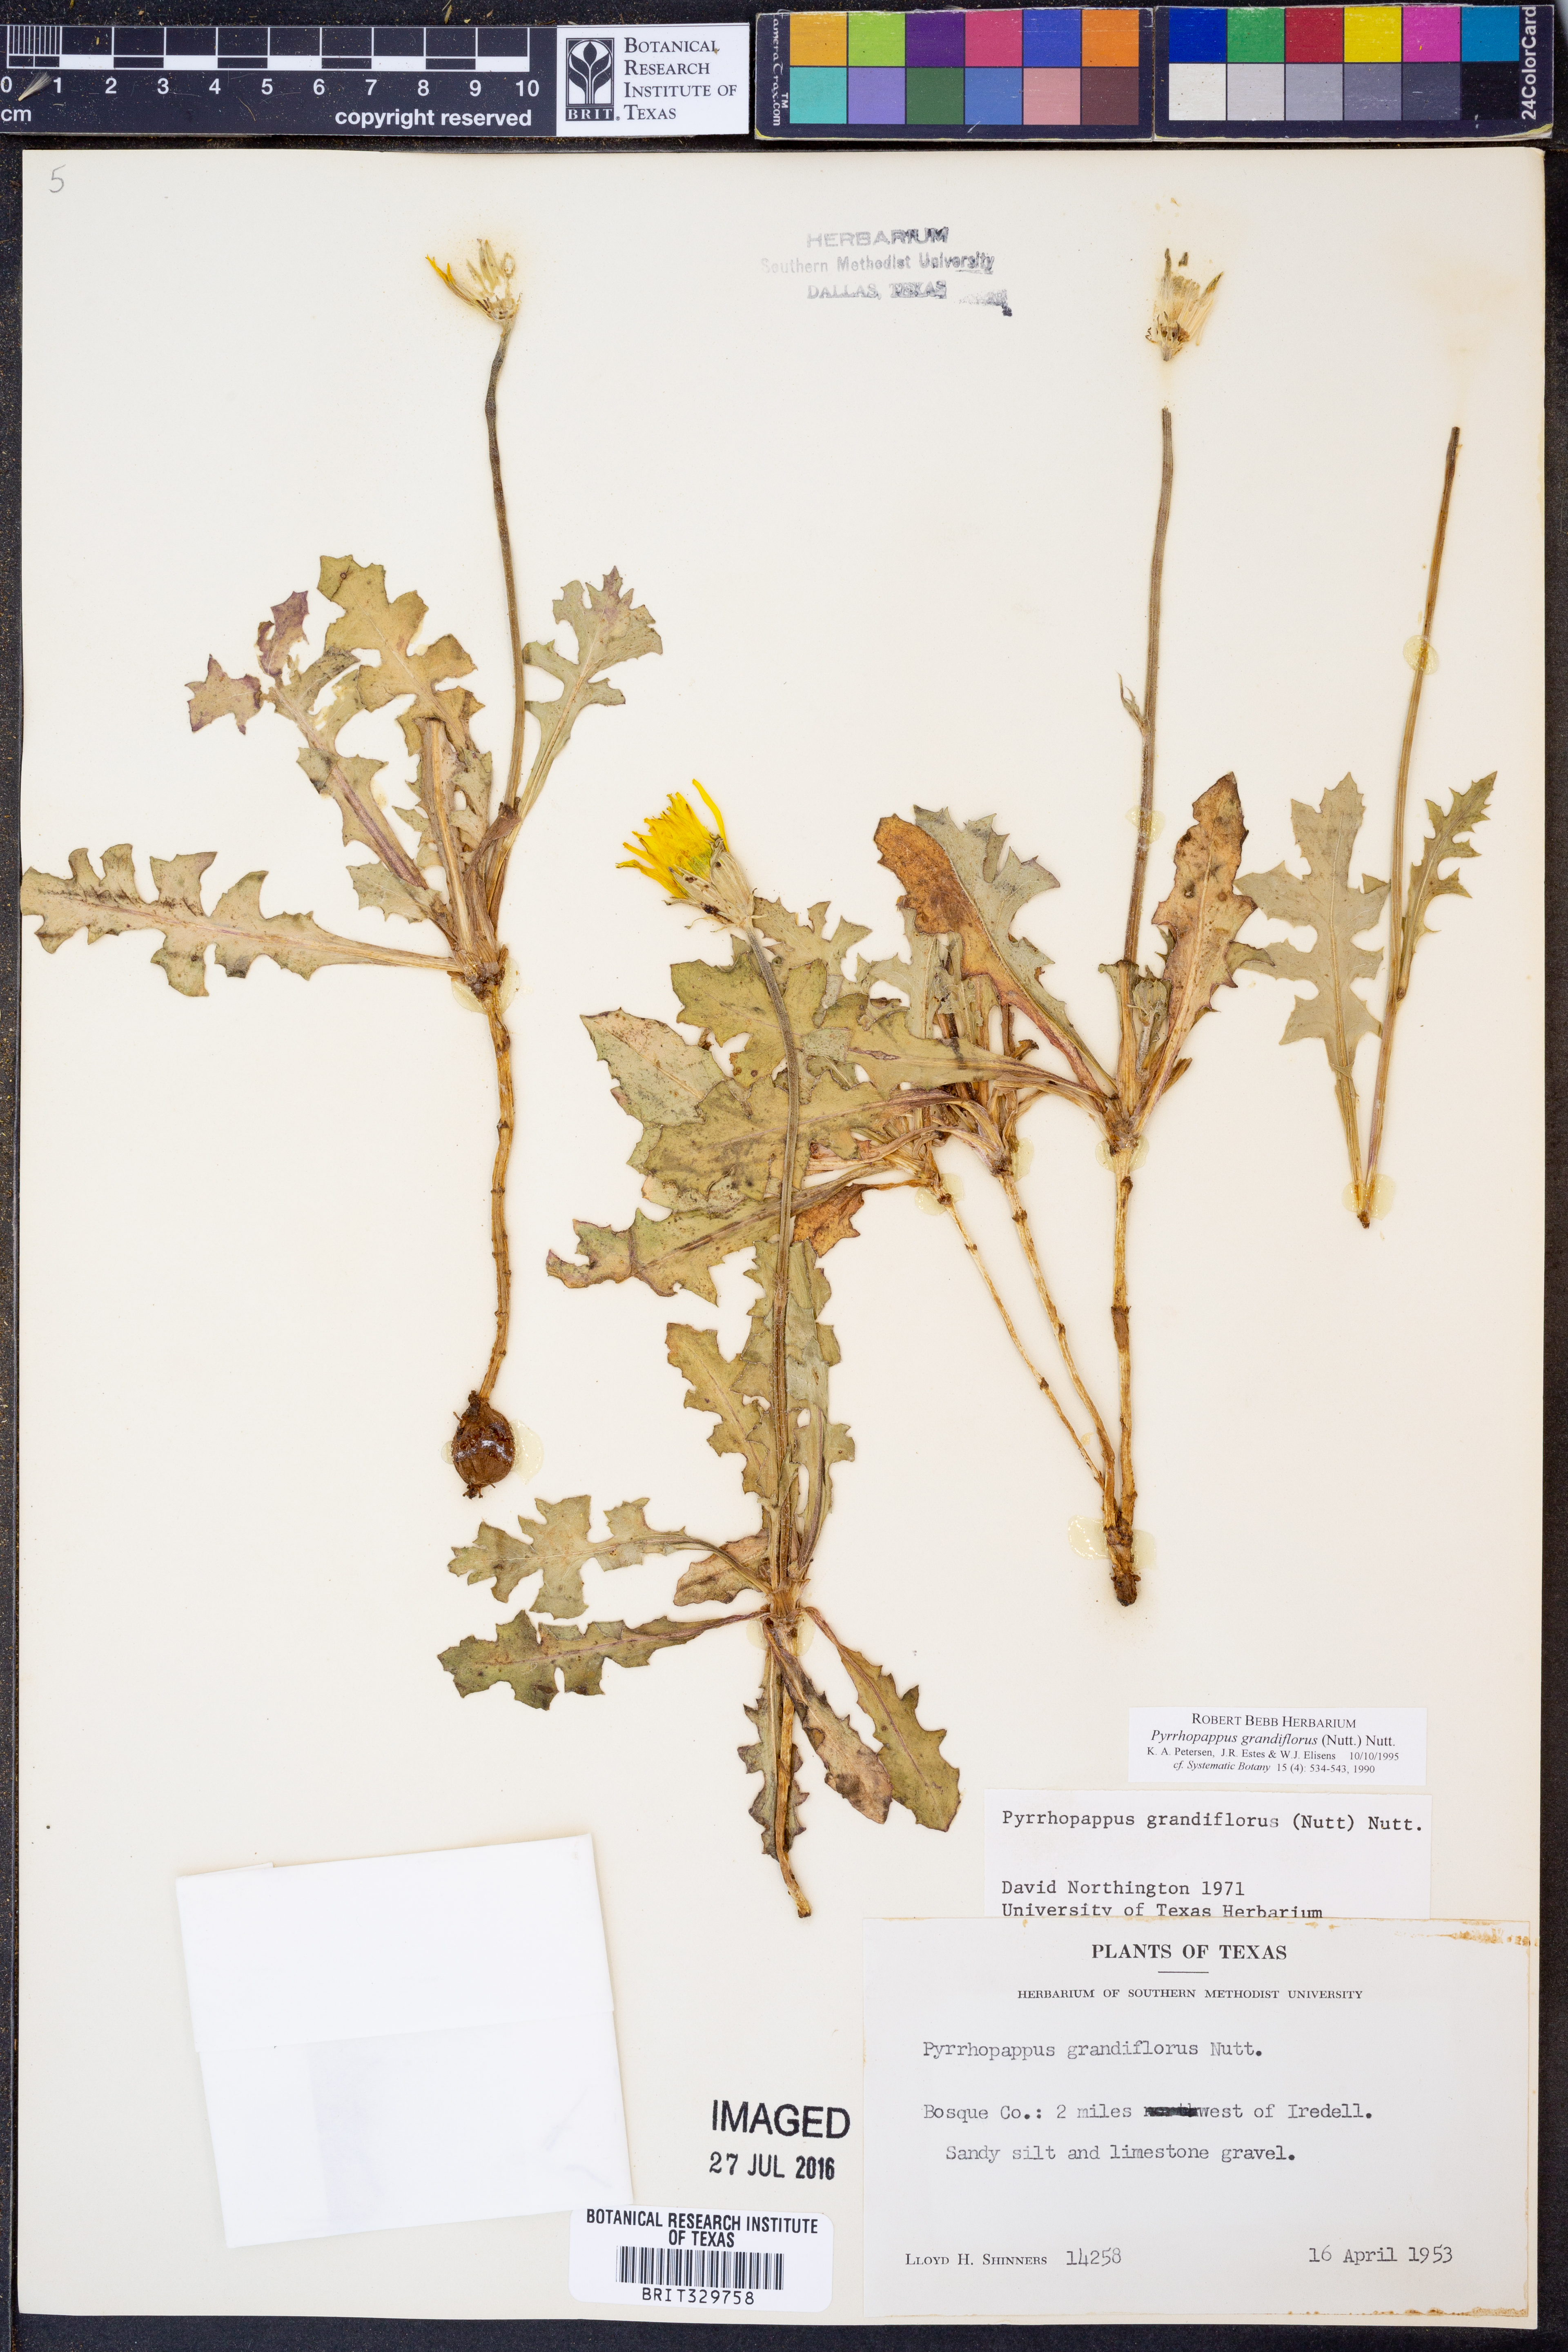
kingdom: Plantae
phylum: Tracheophyta
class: Magnoliopsida
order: Asterales
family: Asteraceae
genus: Pyrrhopappus
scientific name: Pyrrhopappus grandiflorus
